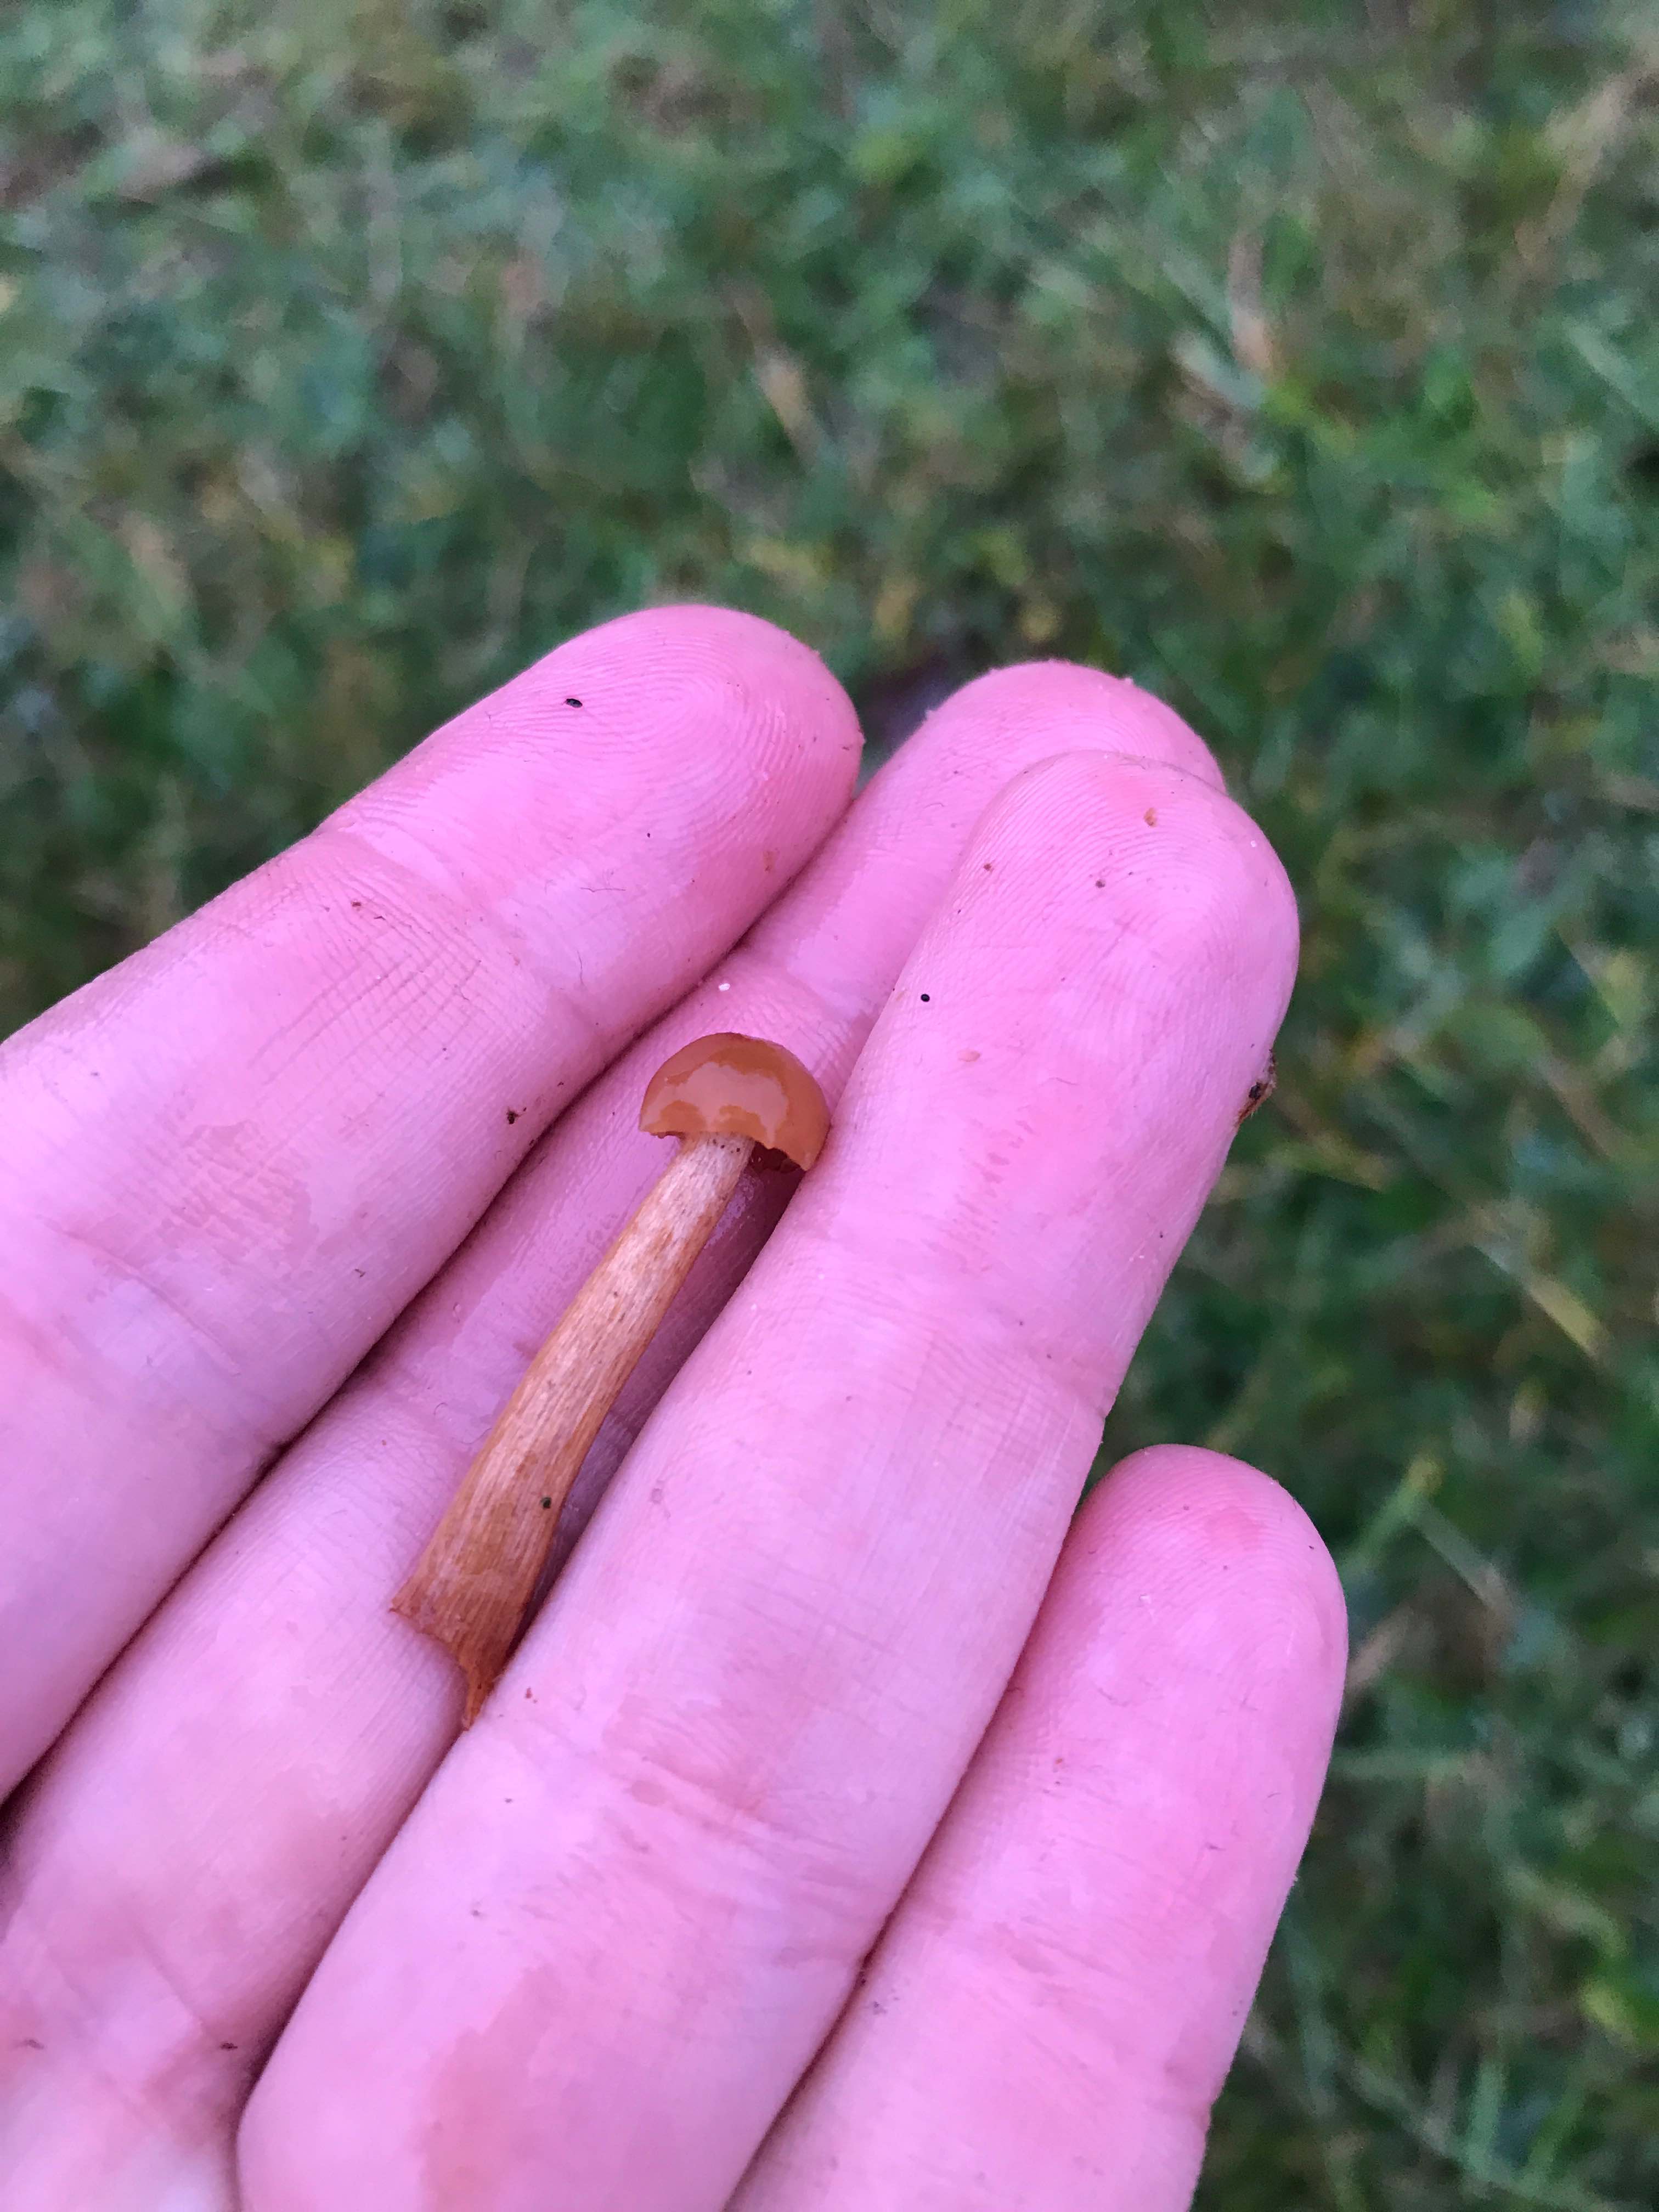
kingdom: Fungi
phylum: Basidiomycota
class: Agaricomycetes
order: Agaricales
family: Hydnangiaceae
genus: Laccaria
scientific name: Laccaria laccata
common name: rød ametysthat
